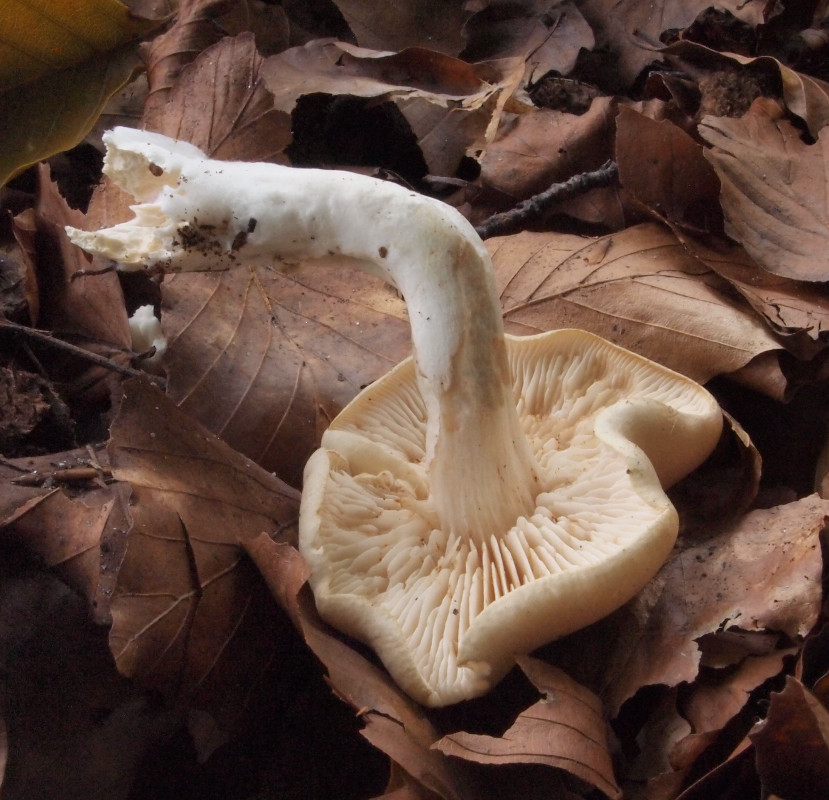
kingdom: Fungi
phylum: Basidiomycota
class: Agaricomycetes
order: Agaricales
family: Tricholomataceae
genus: Tricholoma
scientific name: Tricholoma lascivum
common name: stinkende ridderhat
